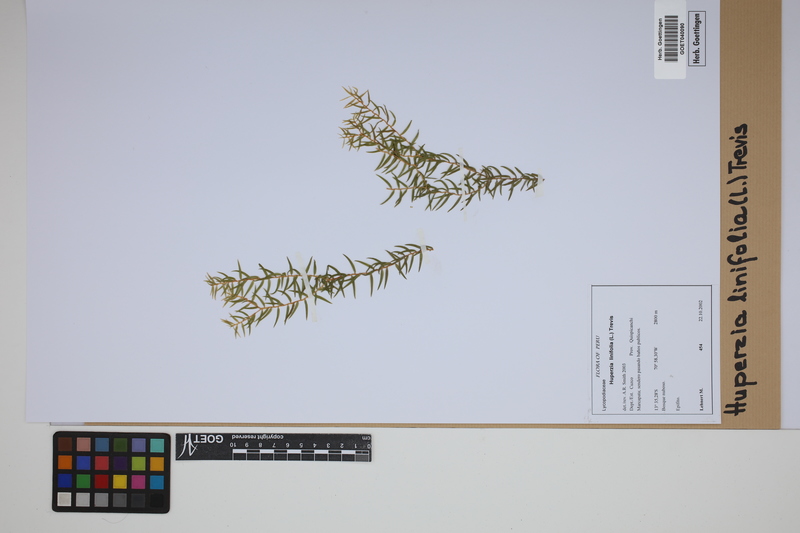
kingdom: Plantae
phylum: Tracheophyta
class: Lycopodiopsida
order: Lycopodiales
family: Lycopodiaceae
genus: Phlegmariurus
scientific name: Phlegmariurus linifolius
